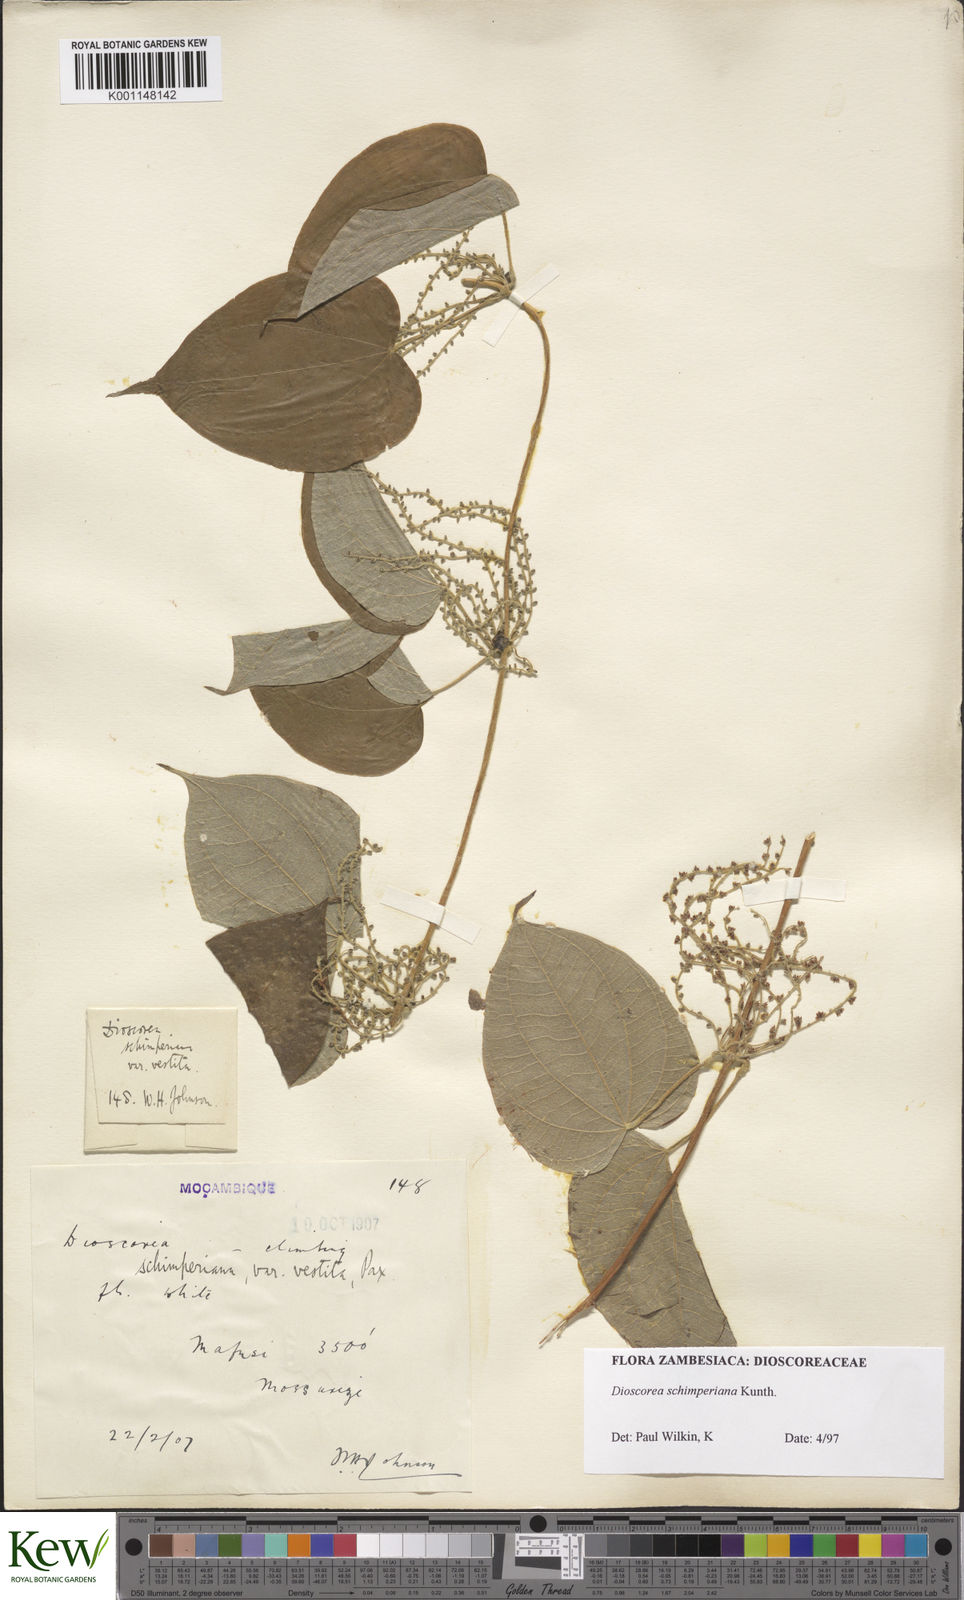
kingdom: Plantae
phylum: Tracheophyta
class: Liliopsida
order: Dioscoreales
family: Dioscoreaceae
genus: Dioscorea
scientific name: Dioscorea schimperiana
